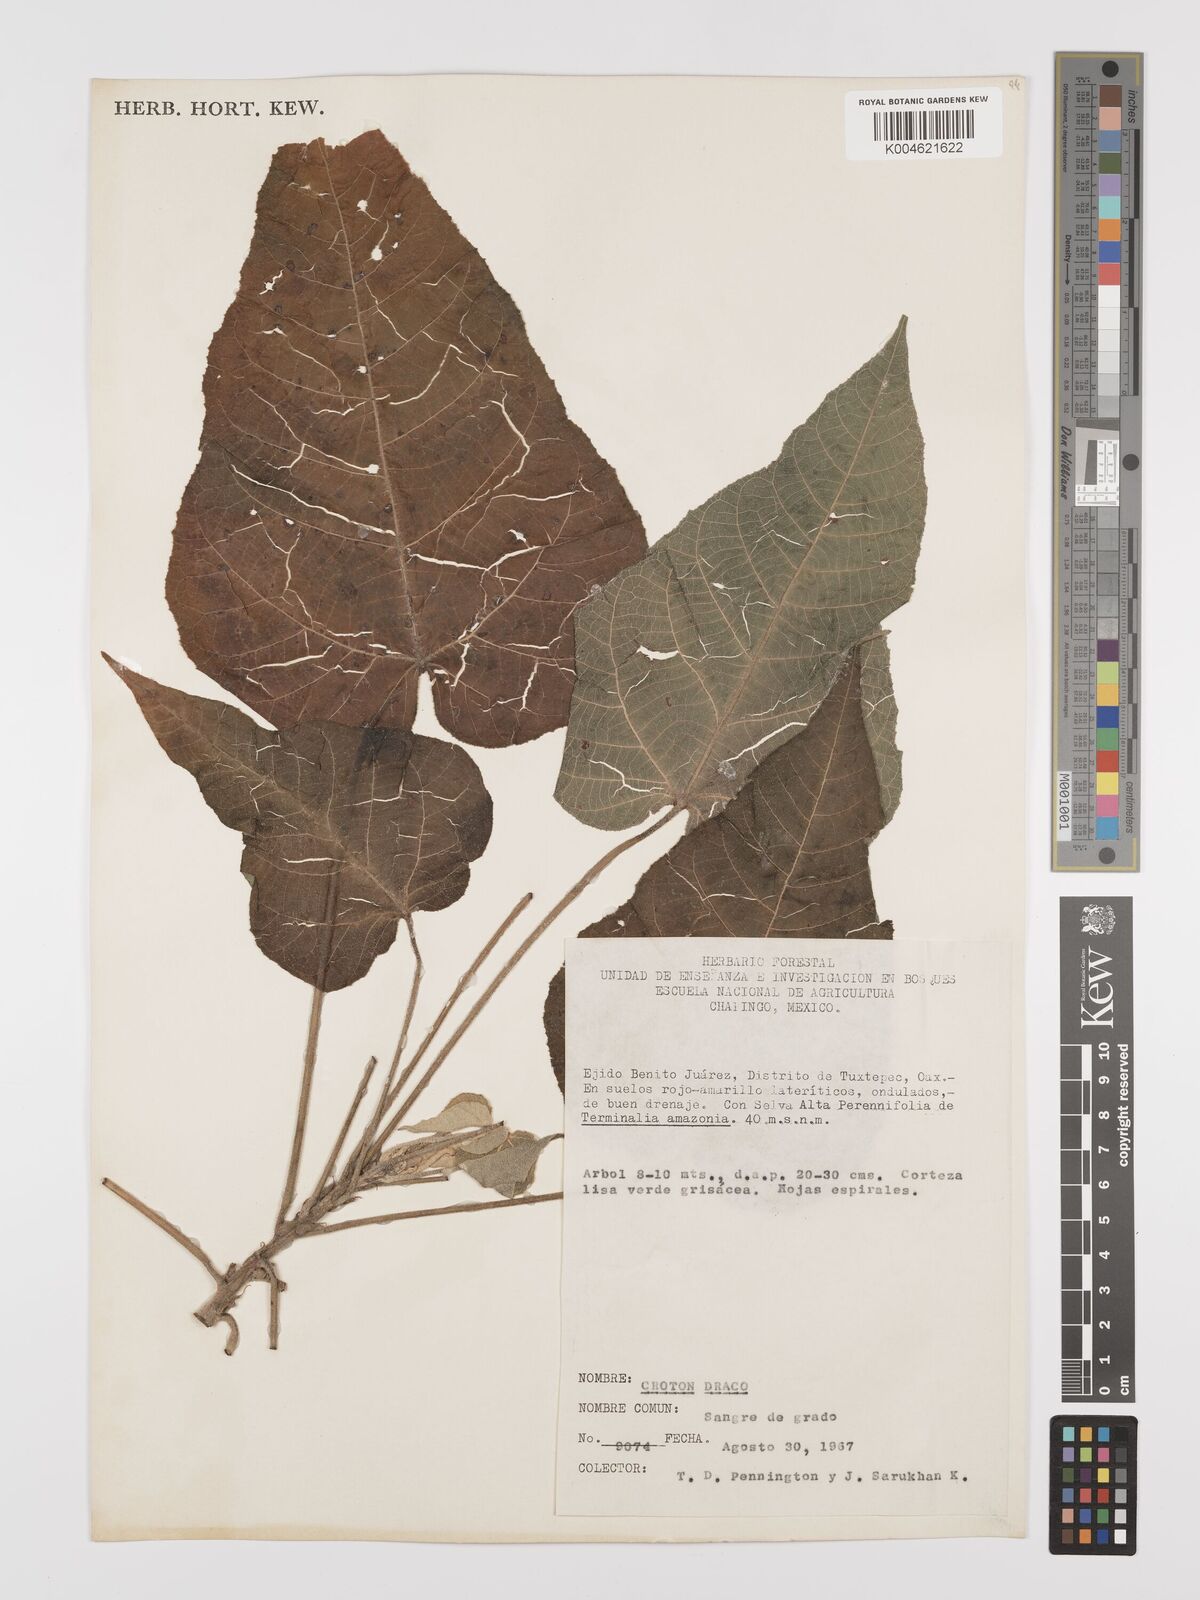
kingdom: Plantae
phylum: Tracheophyta
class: Magnoliopsida
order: Malpighiales
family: Euphorbiaceae
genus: Croton
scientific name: Croton draco
